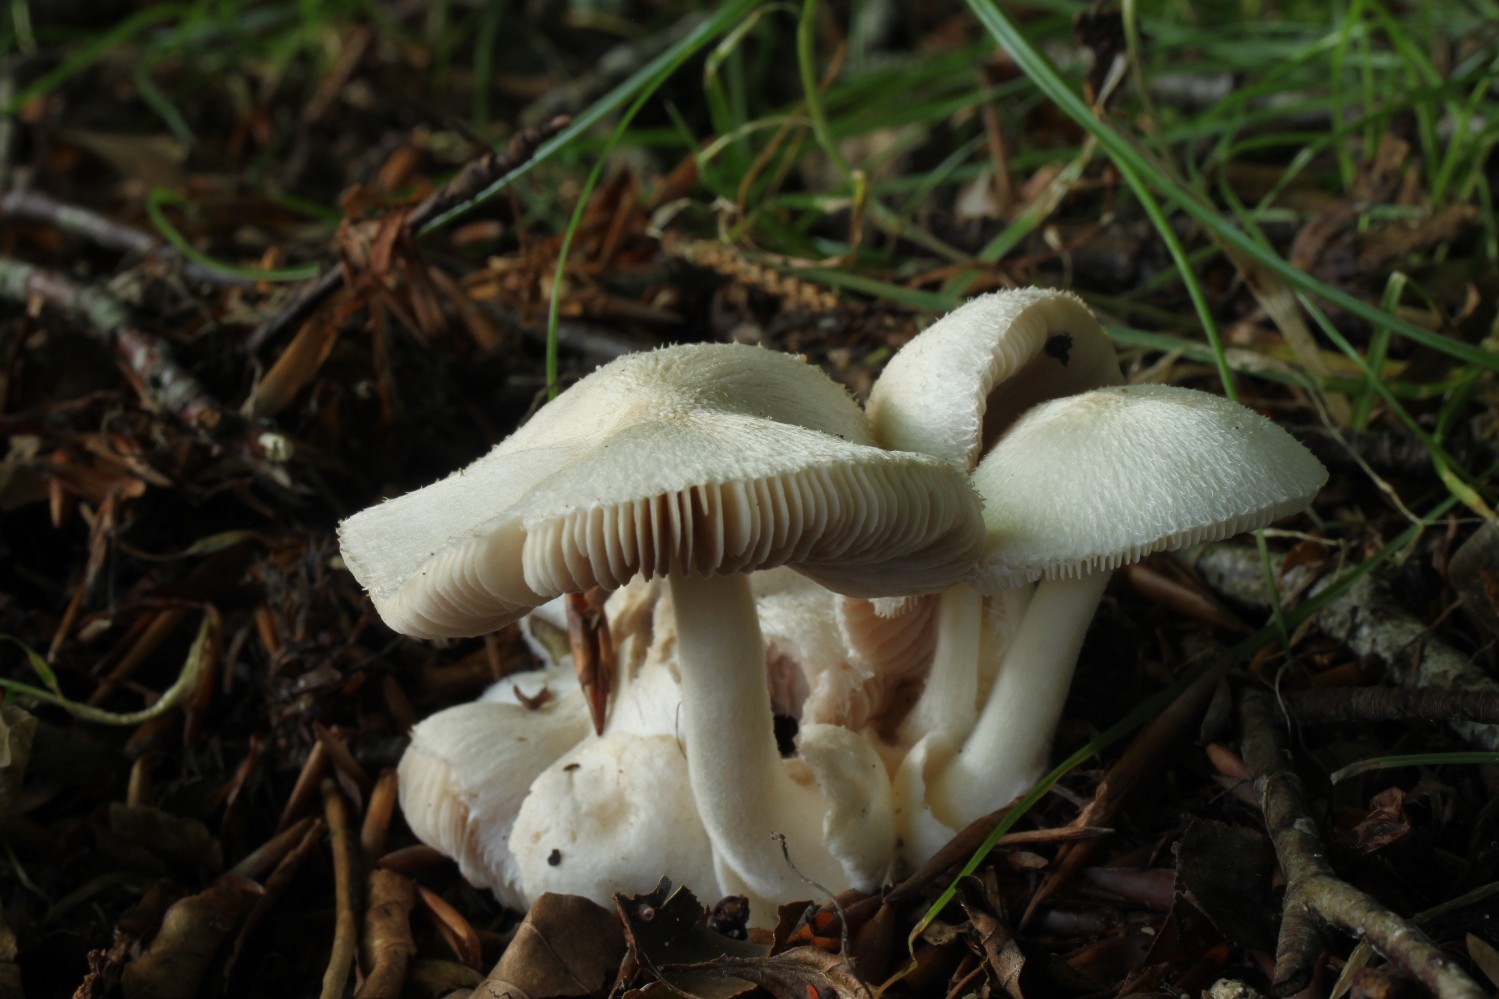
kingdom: Fungi
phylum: Basidiomycota
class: Agaricomycetes
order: Agaricales
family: Pluteaceae
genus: Volvariella
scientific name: Volvariella hypopithys
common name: dunstokket posesvamp
